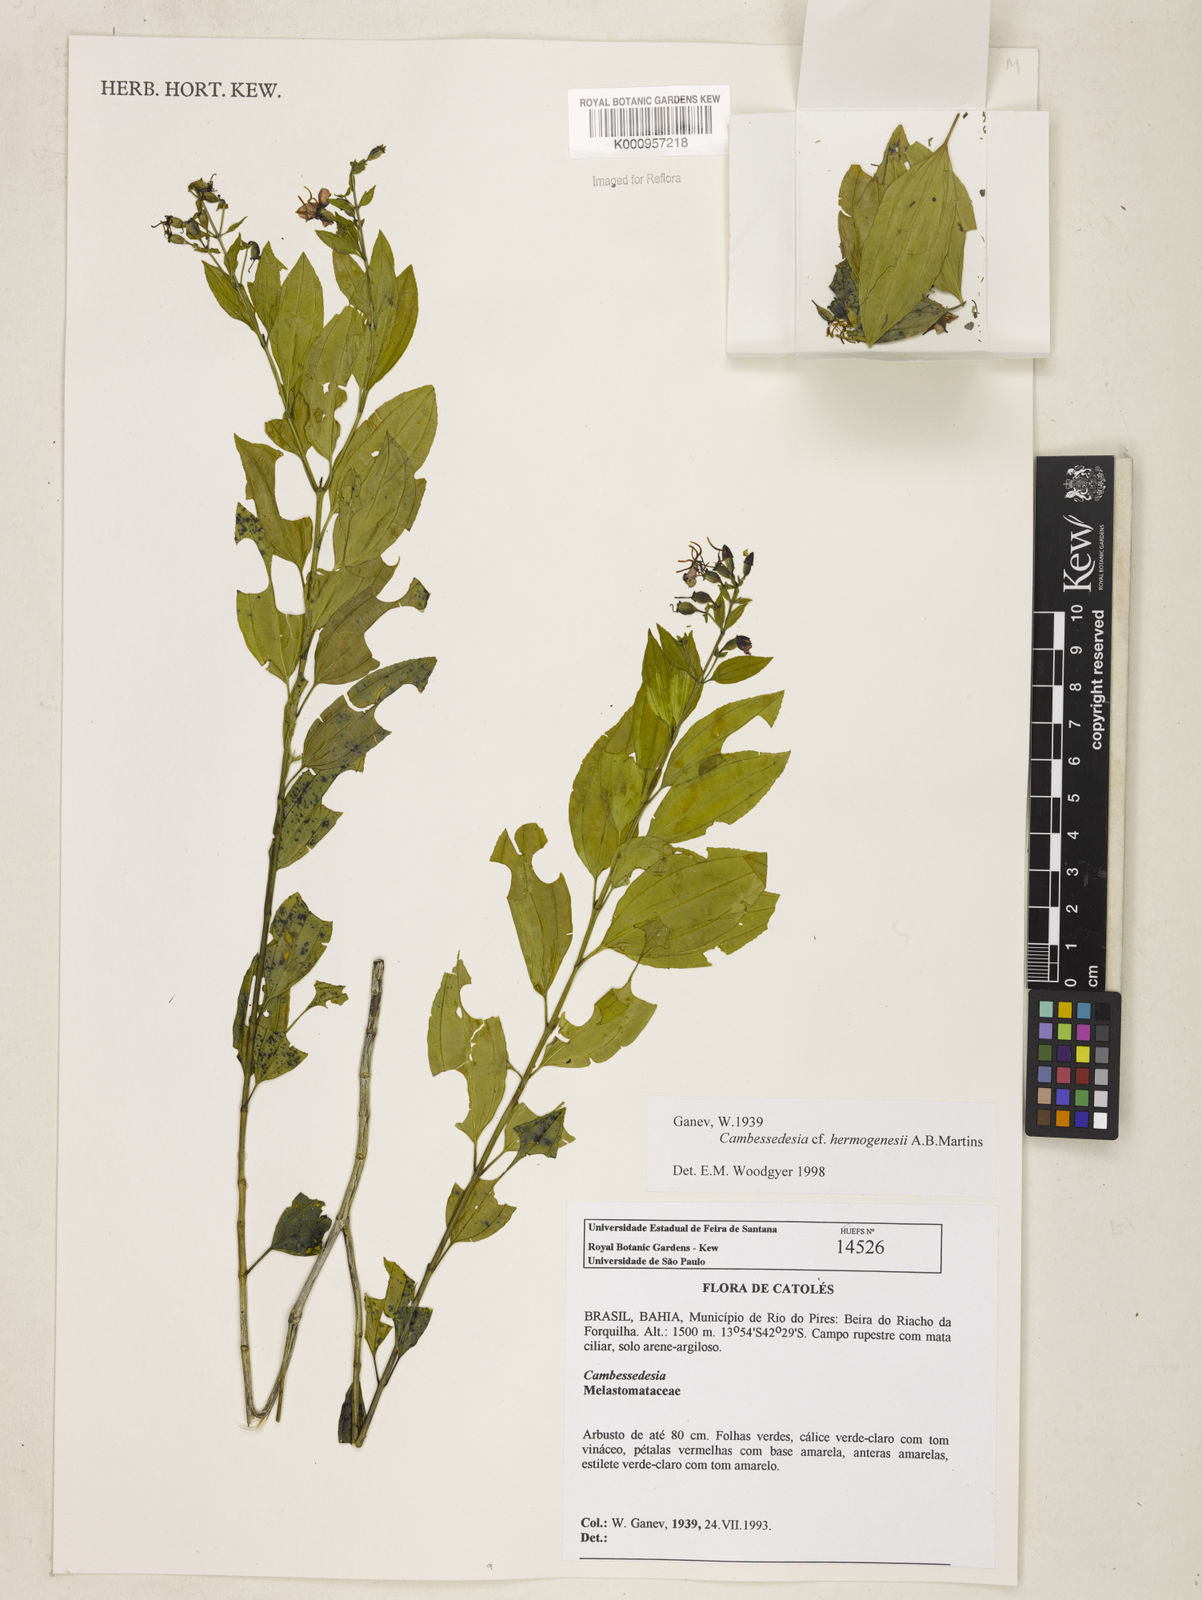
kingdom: Plantae
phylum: Tracheophyta
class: Magnoliopsida
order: Myrtales
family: Melastomataceae
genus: Cambessedesia
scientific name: Cambessedesia hermogenesii
